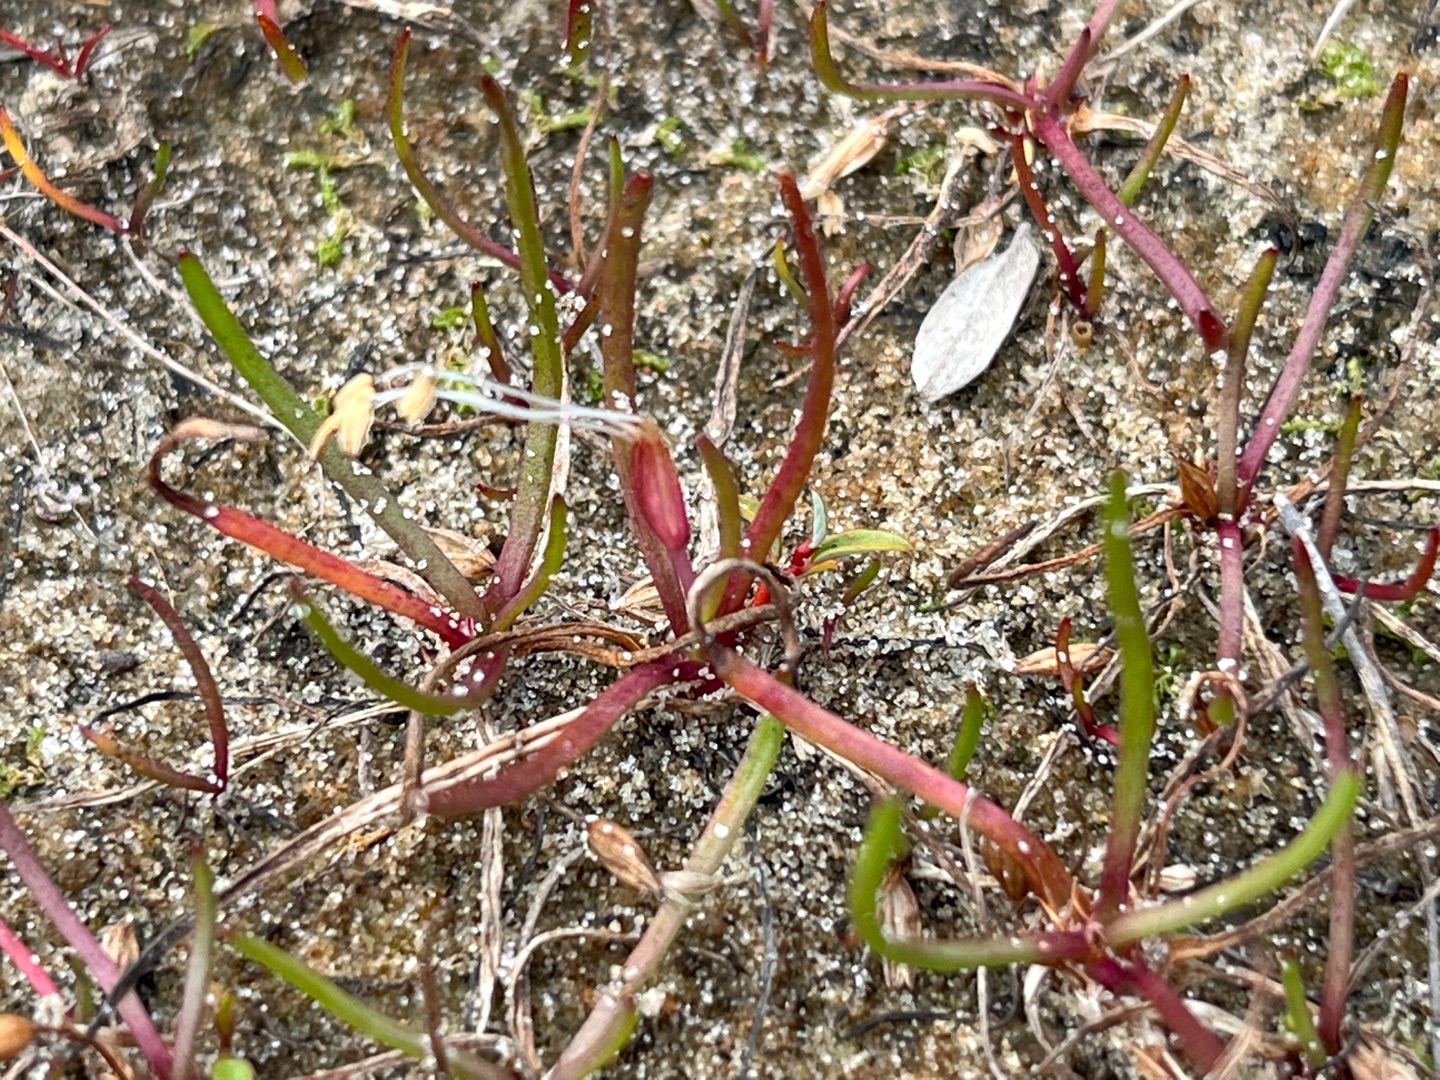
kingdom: Plantae
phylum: Tracheophyta
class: Magnoliopsida
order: Lamiales
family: Plantaginaceae
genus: Littorella
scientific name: Littorella uniflora
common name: Strandbo
